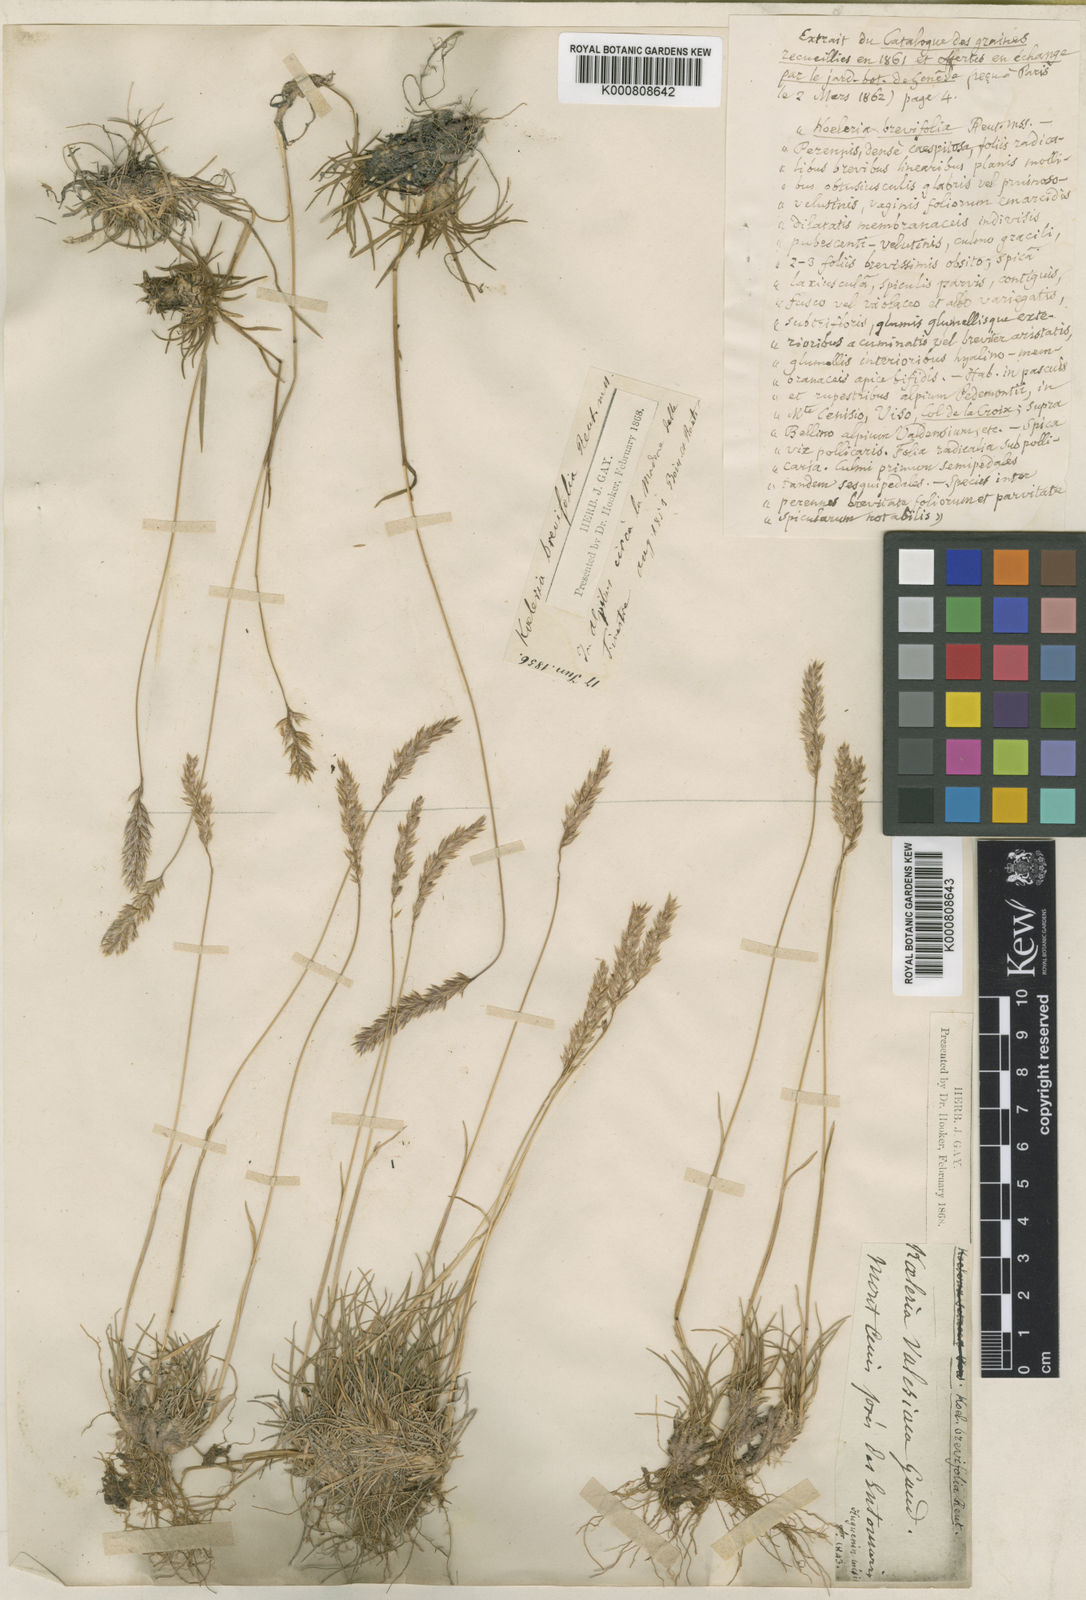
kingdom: Plantae
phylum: Tracheophyta
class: Liliopsida
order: Poales
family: Poaceae
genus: Koeleria
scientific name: Koeleria
